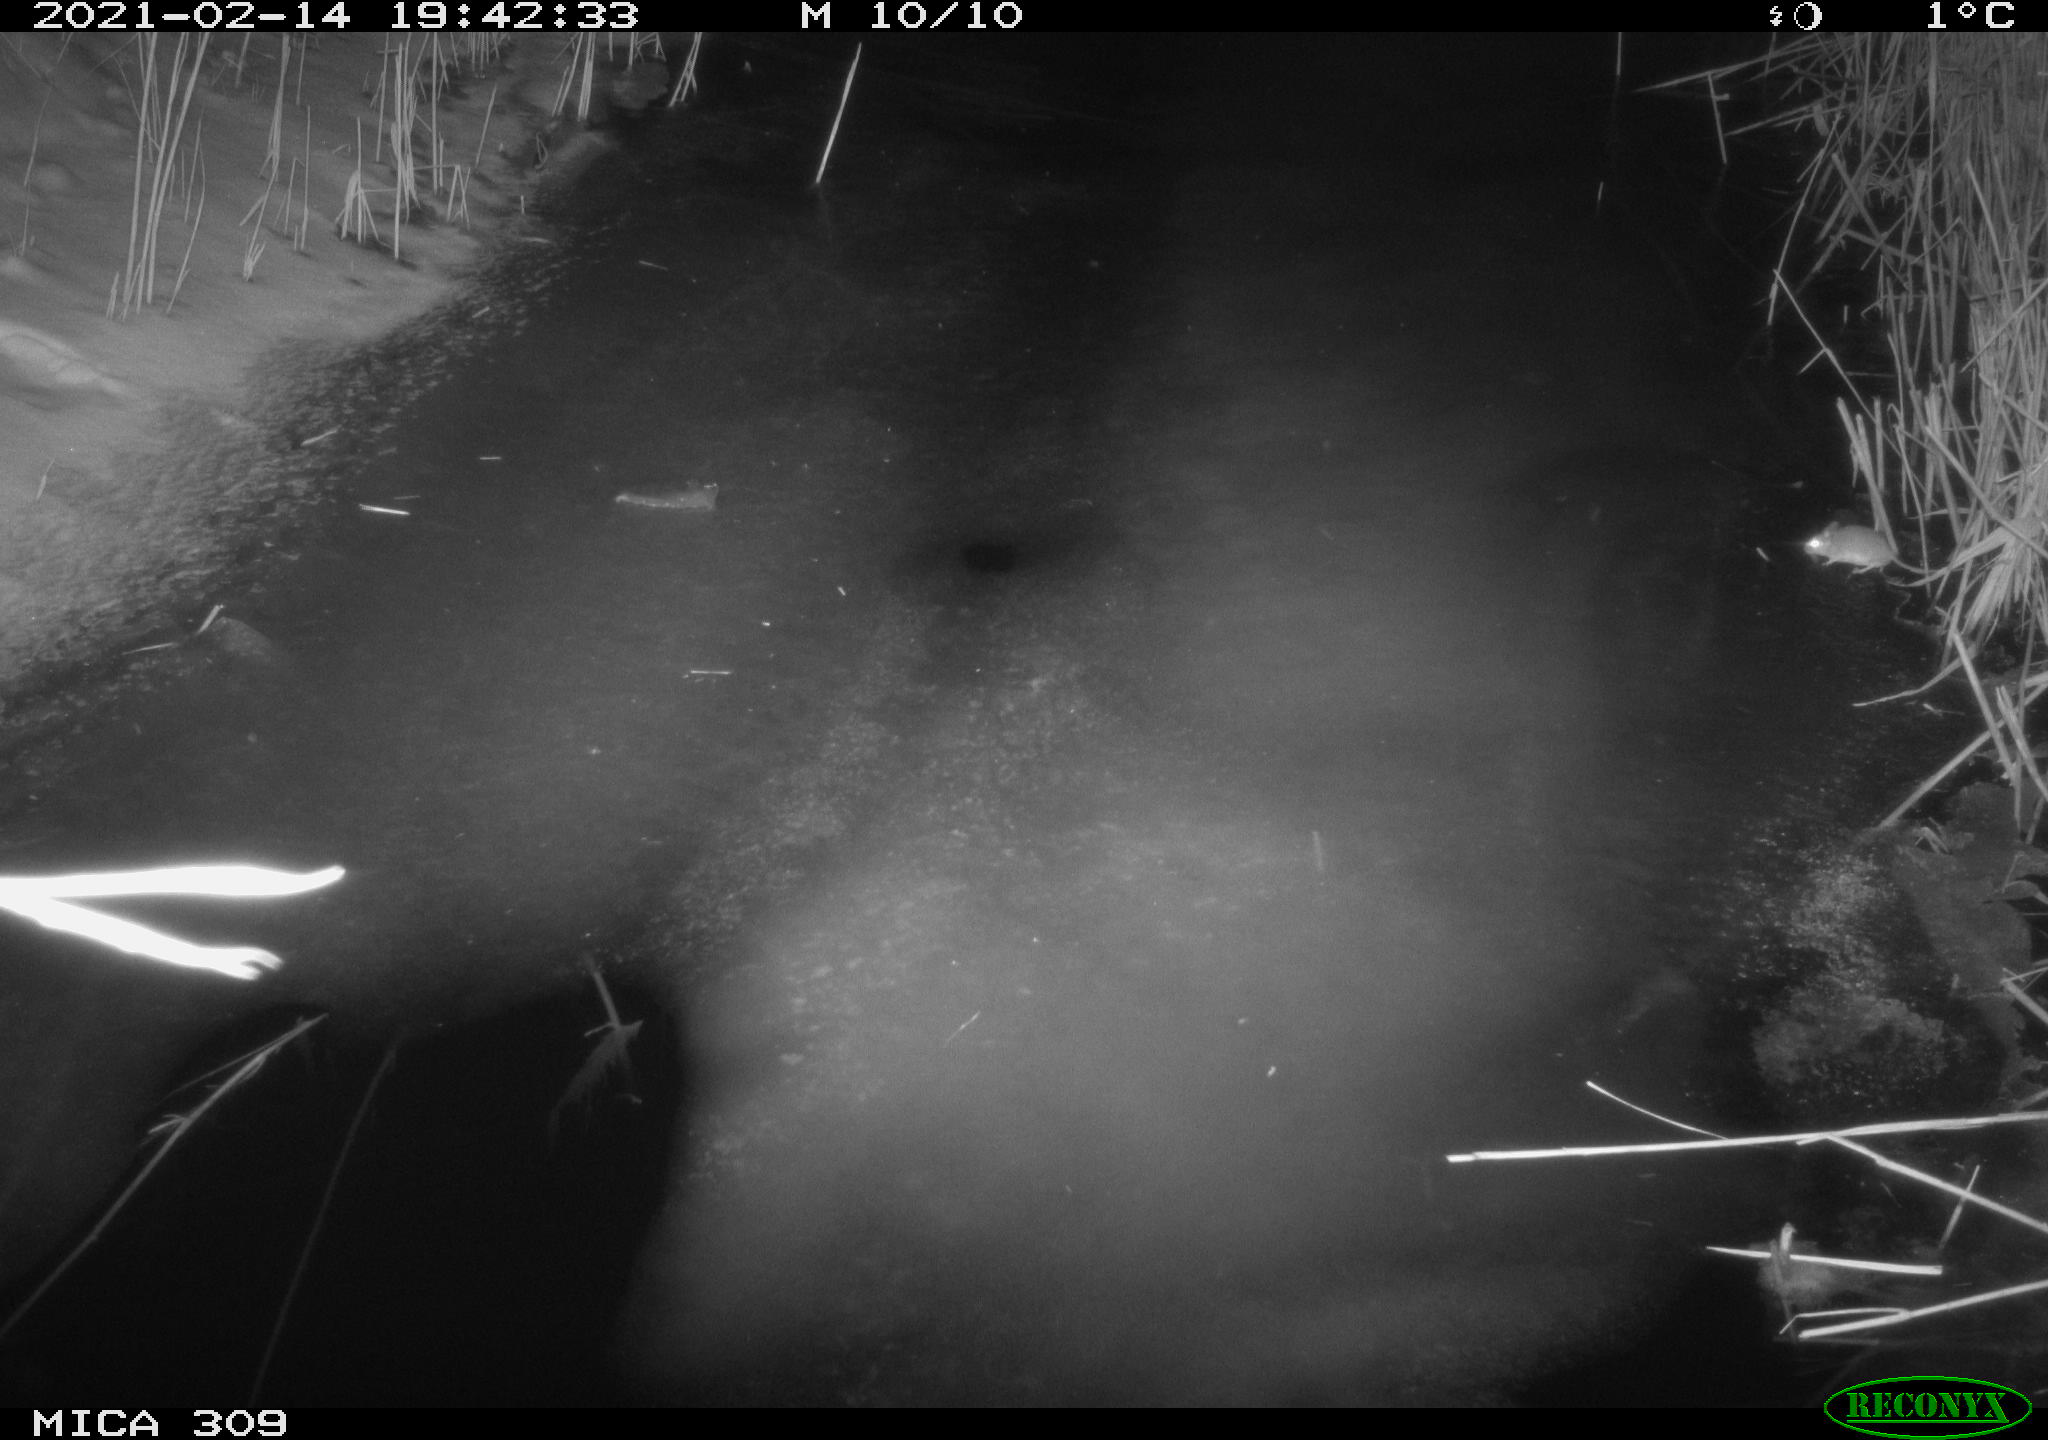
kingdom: Animalia
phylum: Chordata
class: Mammalia
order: Rodentia
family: Muridae
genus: Apodemus
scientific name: Apodemus sylvaticus
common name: Wood mouse
